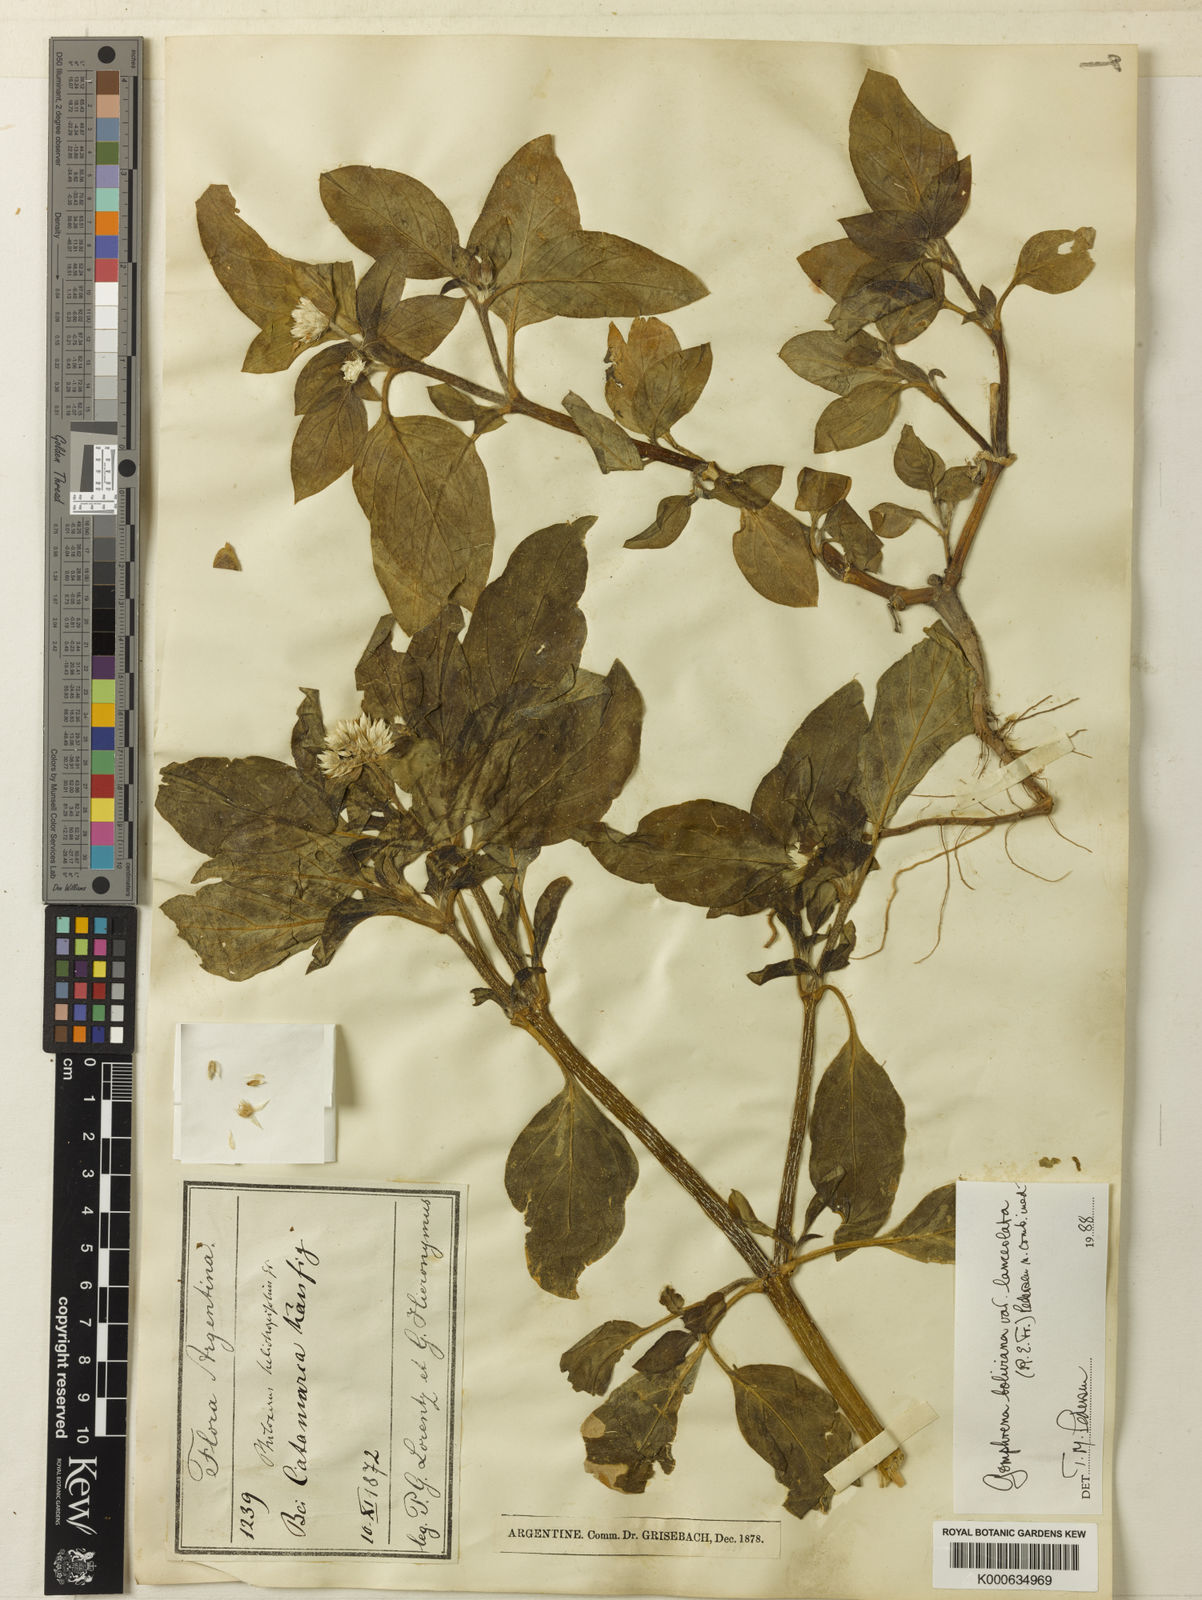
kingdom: Plantae
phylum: Tracheophyta
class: Magnoliopsida
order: Caryophyllales
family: Amaranthaceae
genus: Gomphrena
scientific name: Gomphrena martiana
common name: Globe amaranth
